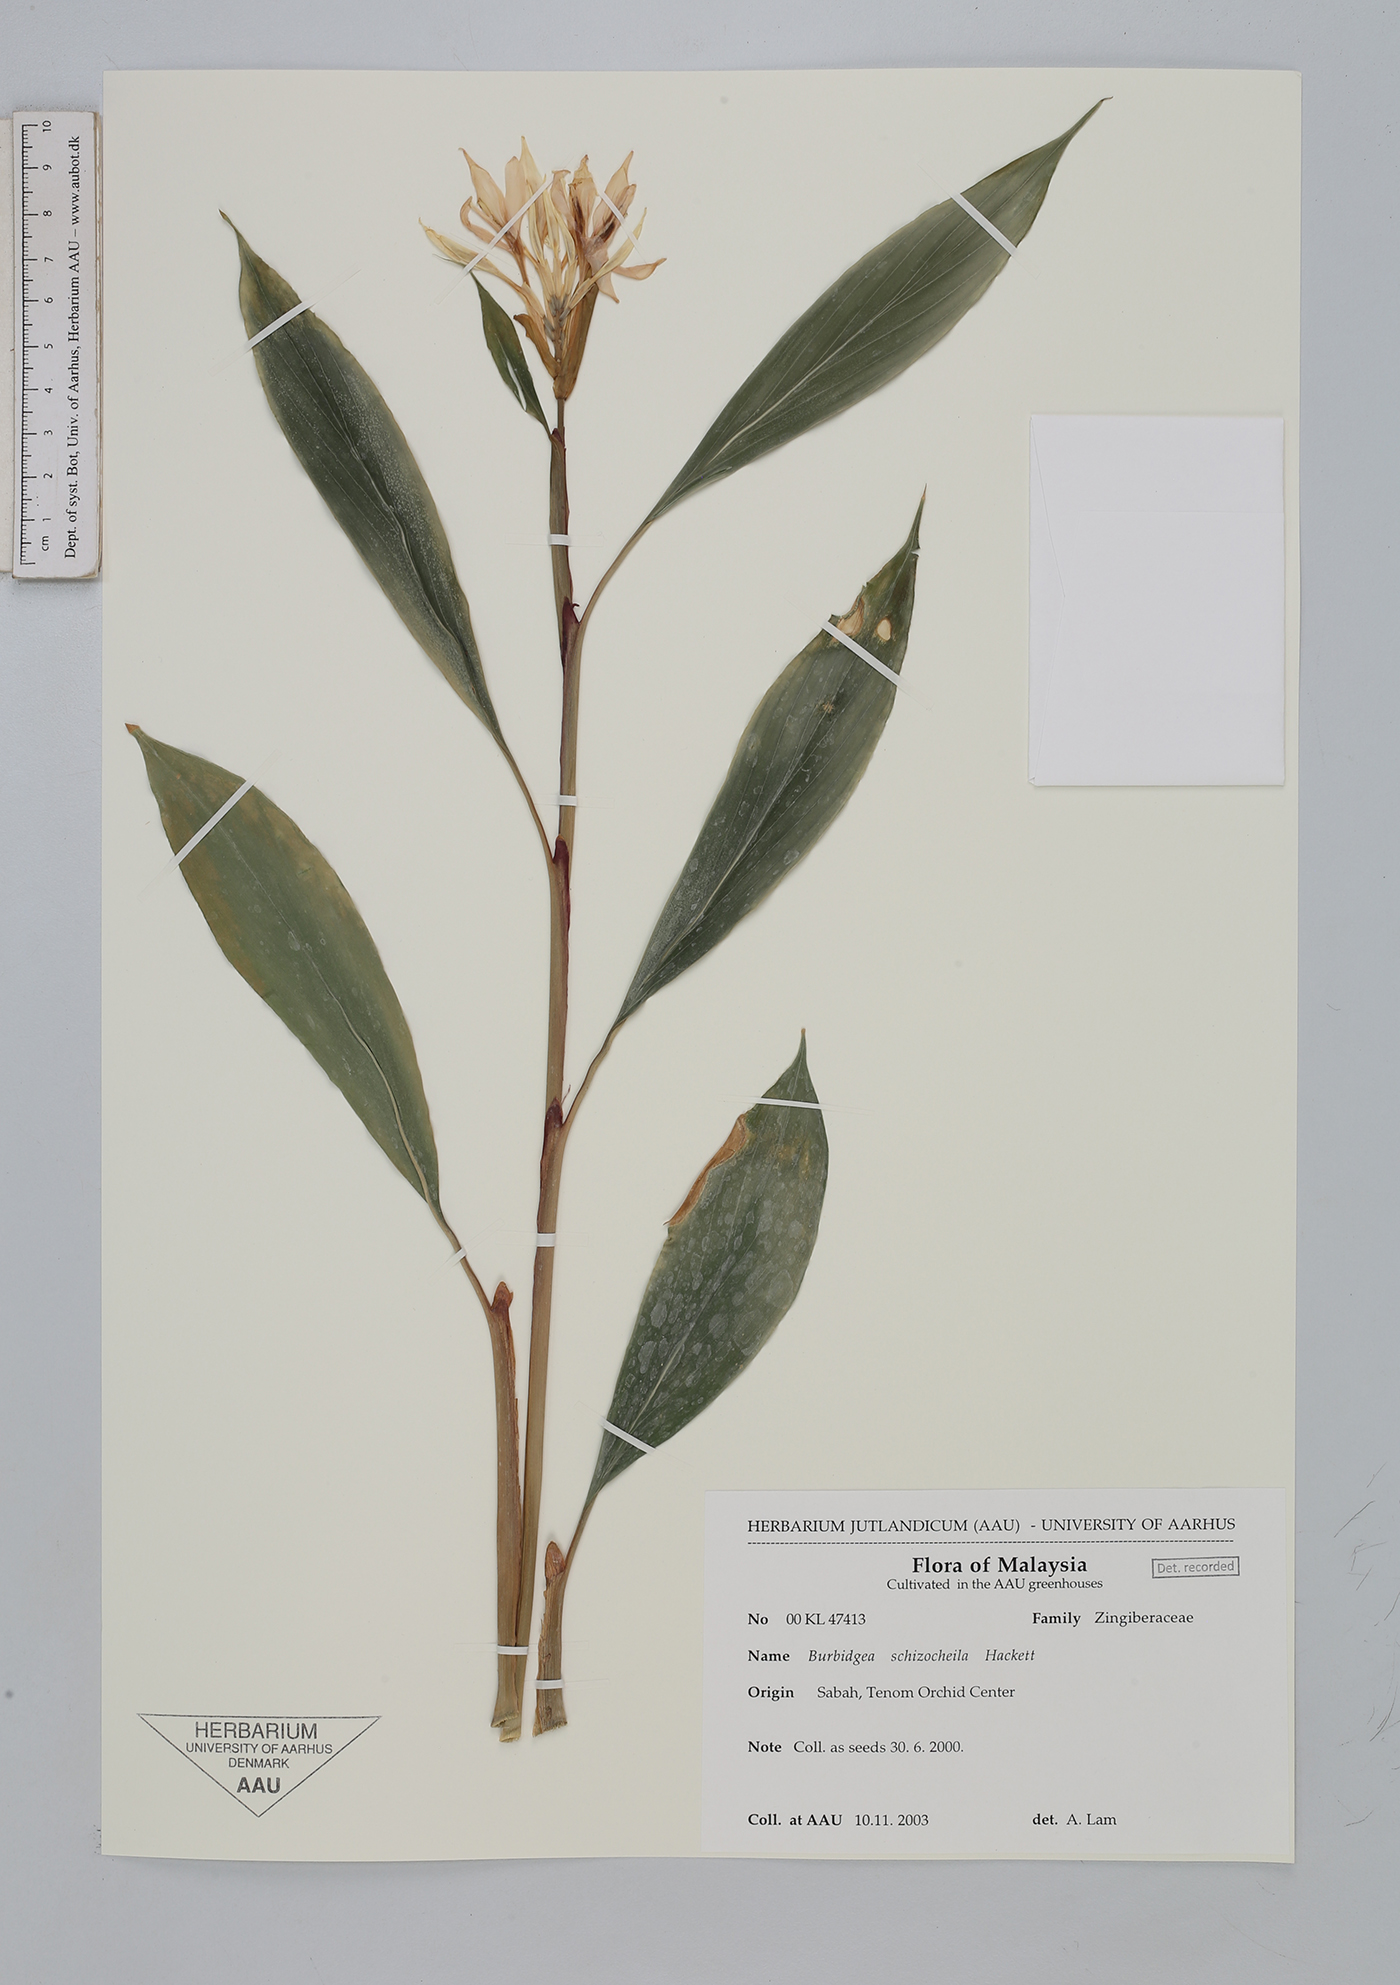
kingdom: Plantae
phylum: Tracheophyta
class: Liliopsida
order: Zingiberales
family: Zingiberaceae
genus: Burbidgea
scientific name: Burbidgea schizocheila
